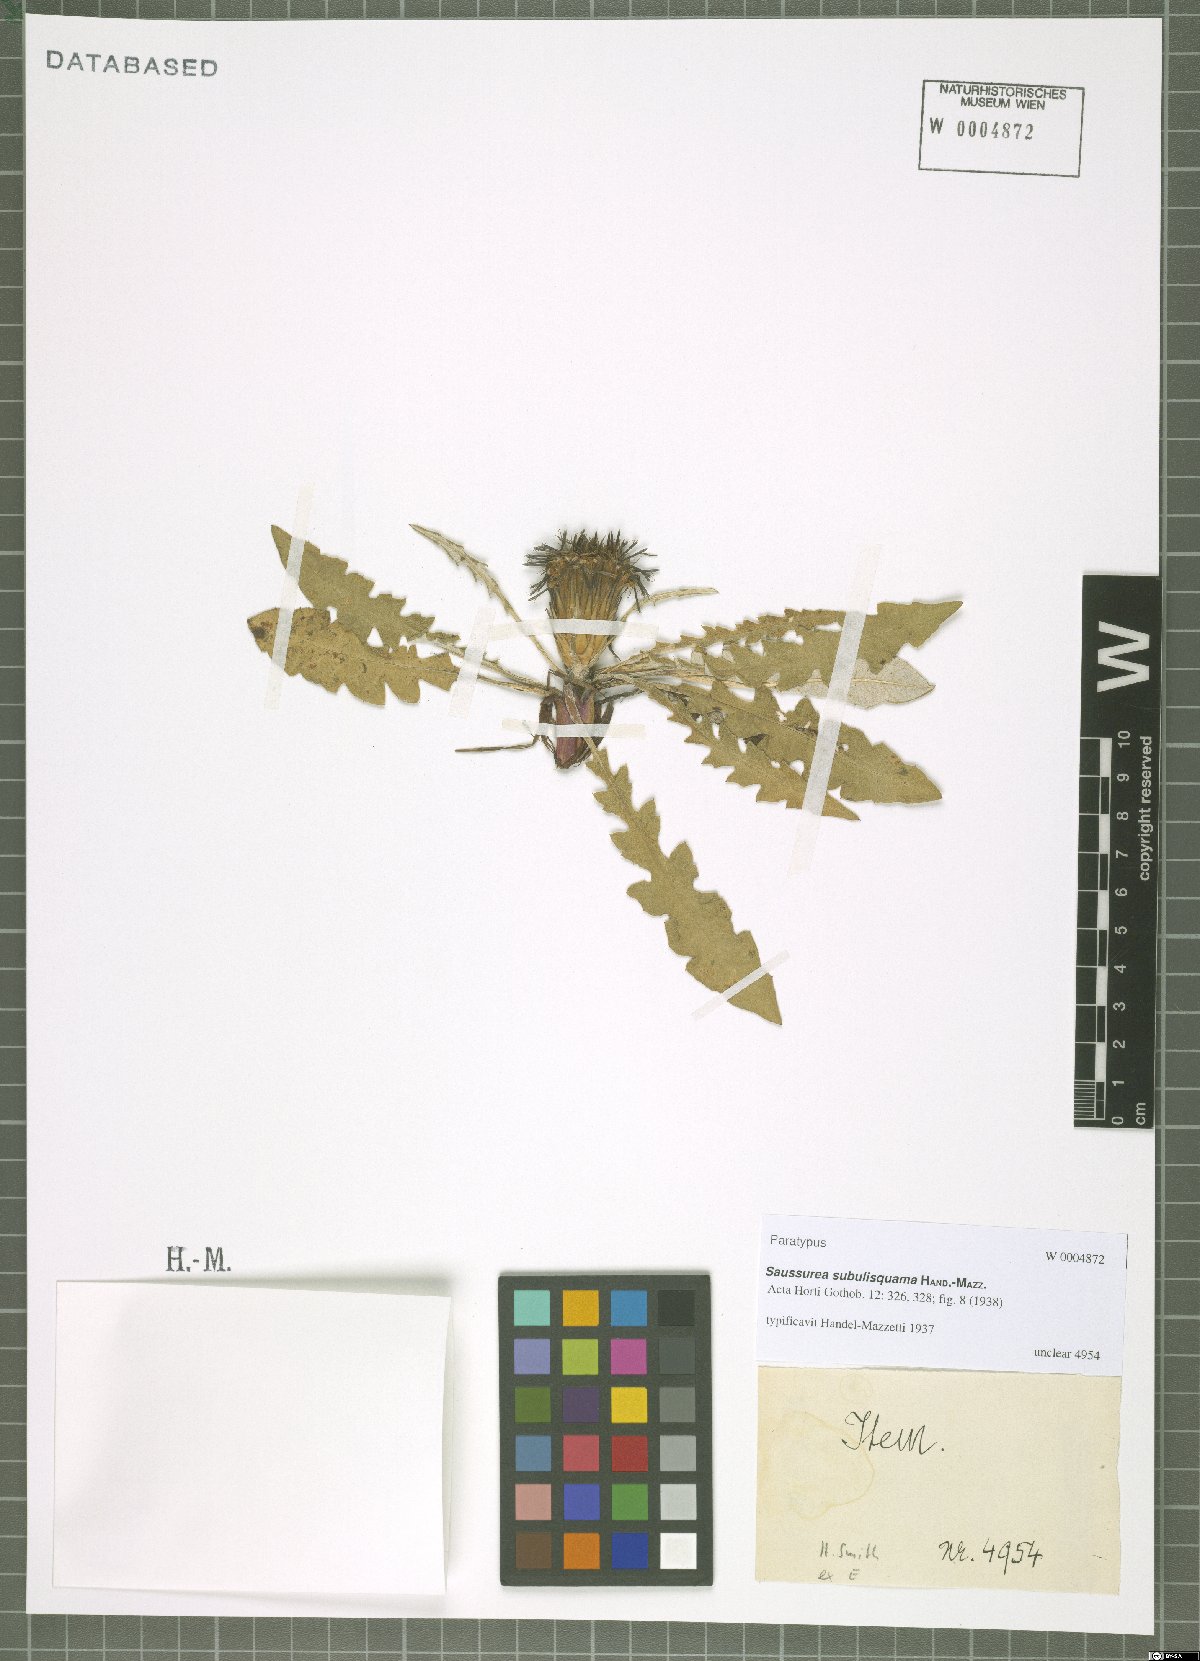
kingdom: Plantae
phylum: Tracheophyta
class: Magnoliopsida
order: Asterales
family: Asteraceae
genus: Saussurea
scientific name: Saussurea subulisquama
